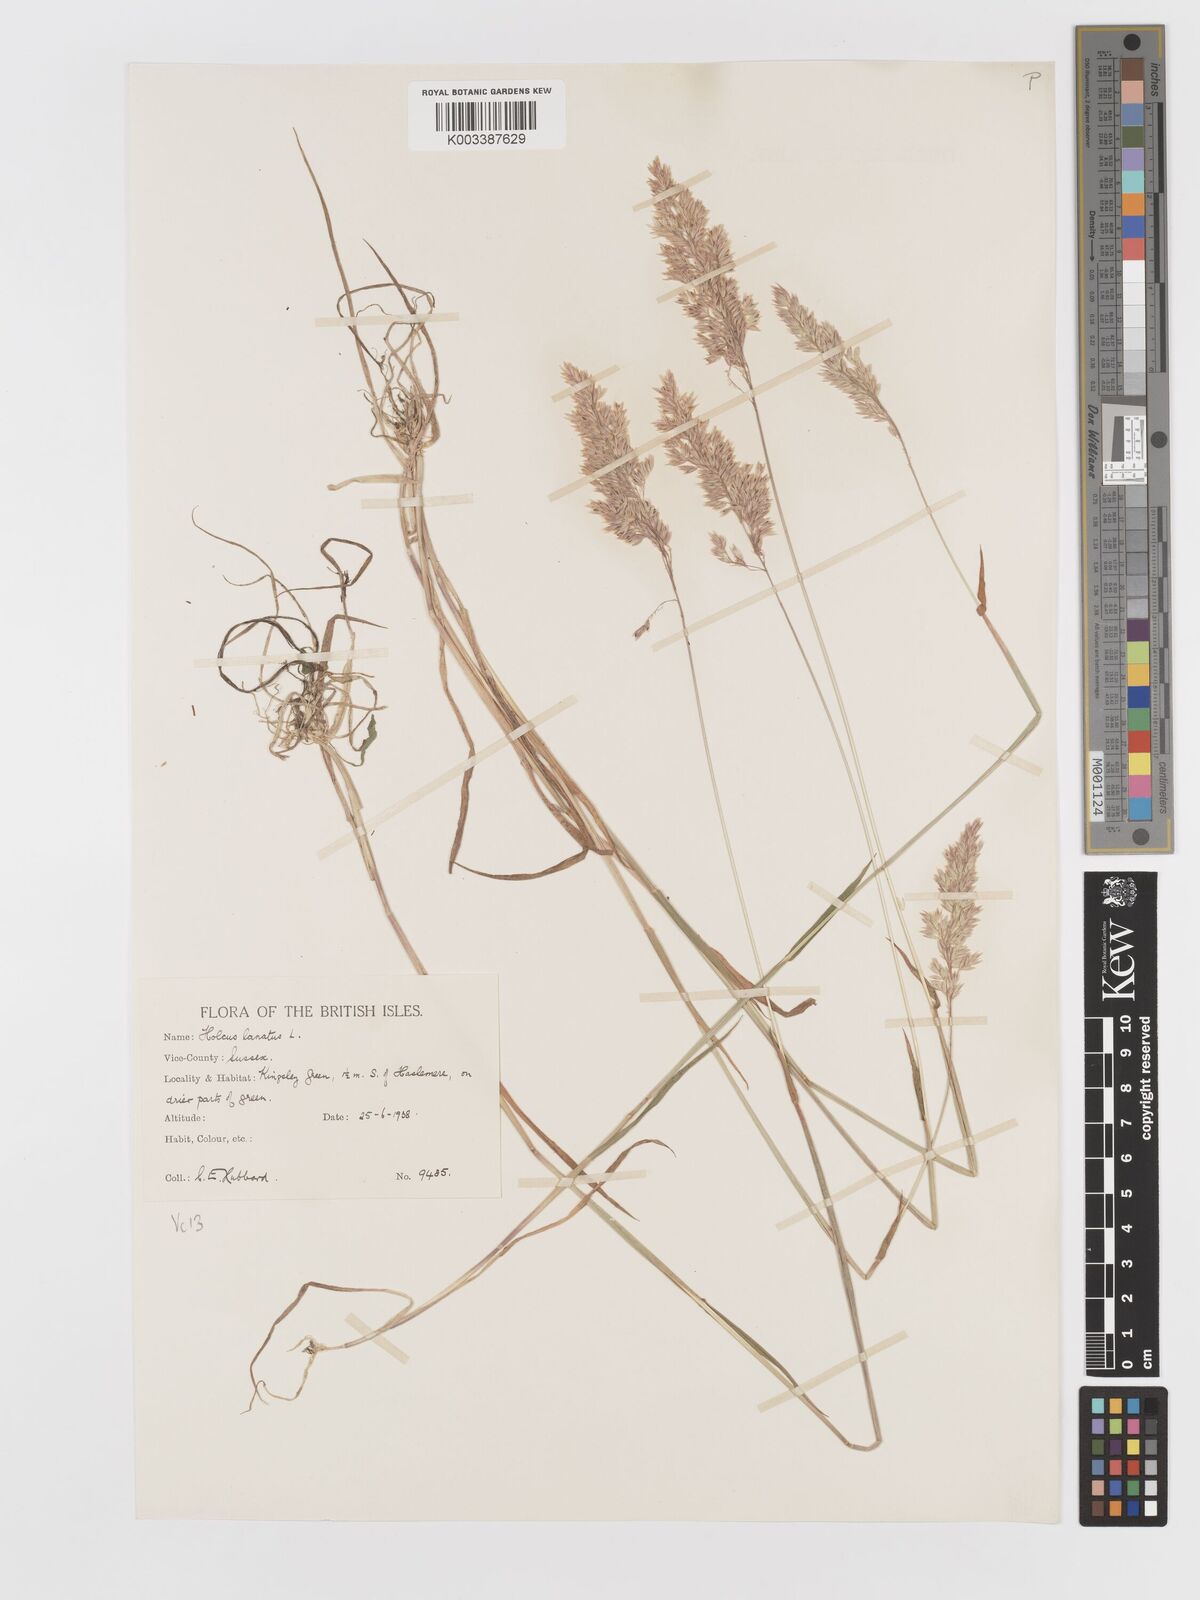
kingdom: Plantae
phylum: Tracheophyta
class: Liliopsida
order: Poales
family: Poaceae
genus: Holcus
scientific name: Holcus lanatus
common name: Yorkshire-fog
